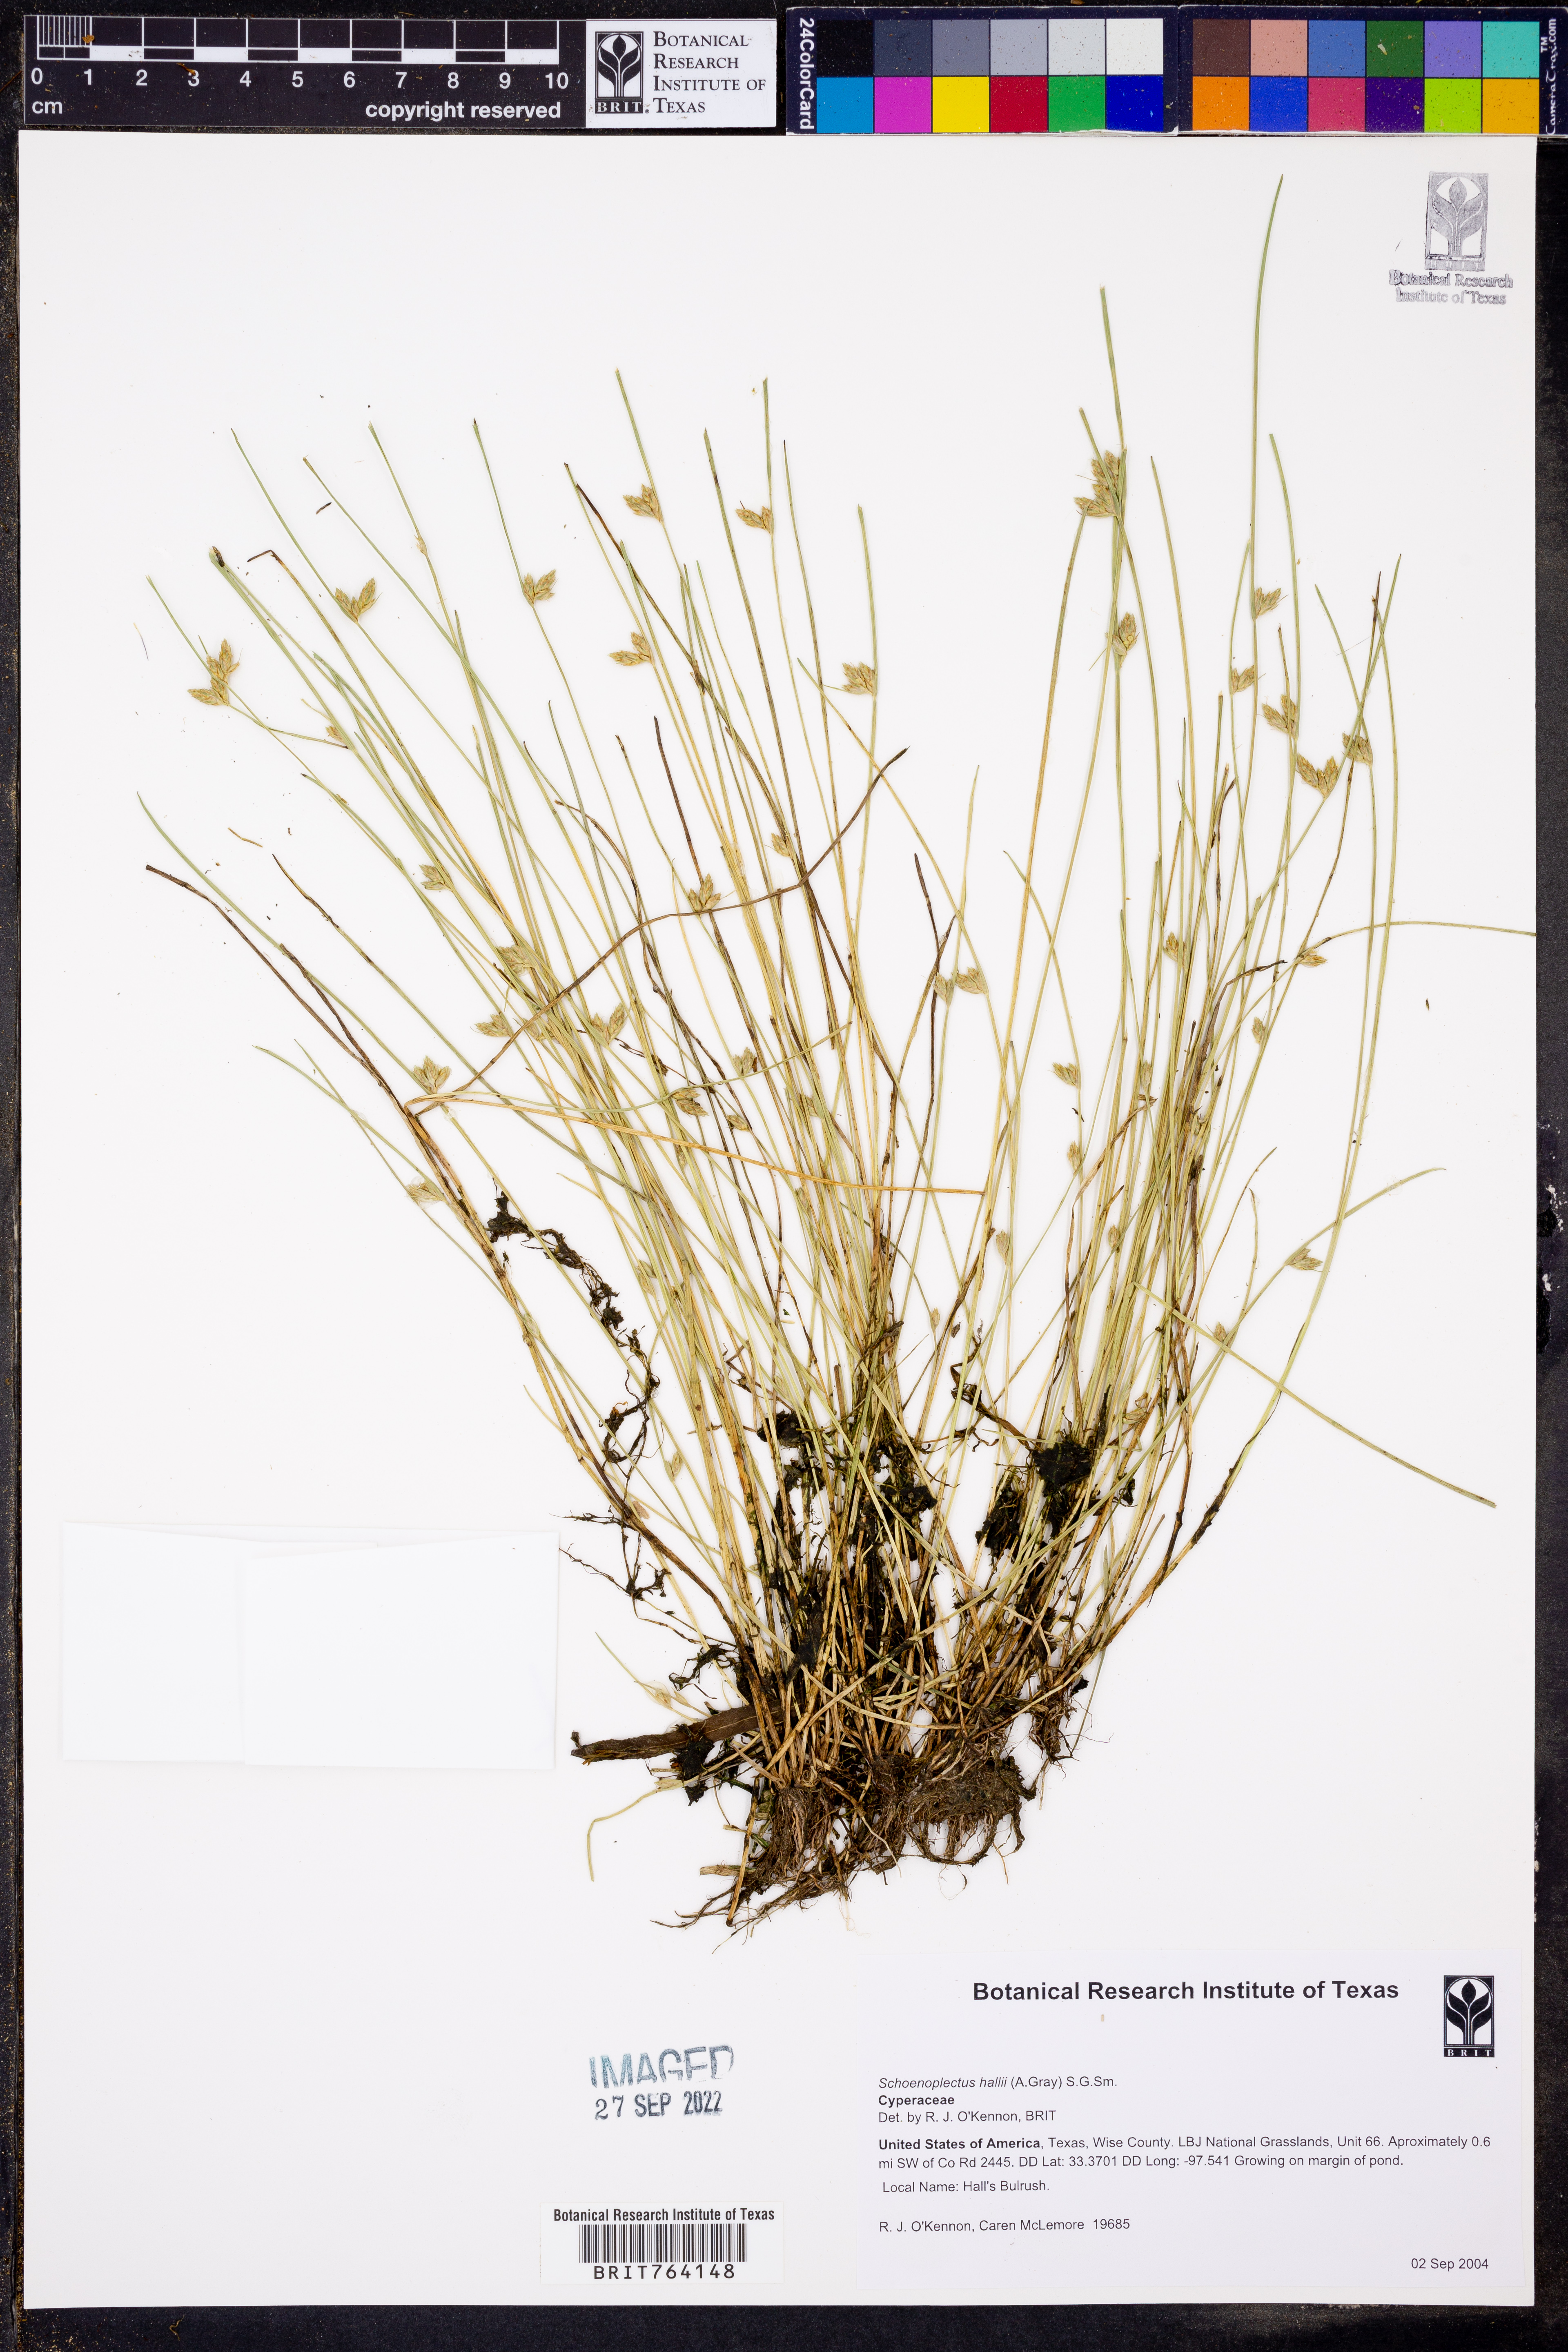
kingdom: Plantae
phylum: Tracheophyta
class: Liliopsida
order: Poales
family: Cyperaceae
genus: Schoenoplectiella
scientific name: Schoenoplectiella hallii
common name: Hall's bullrush
